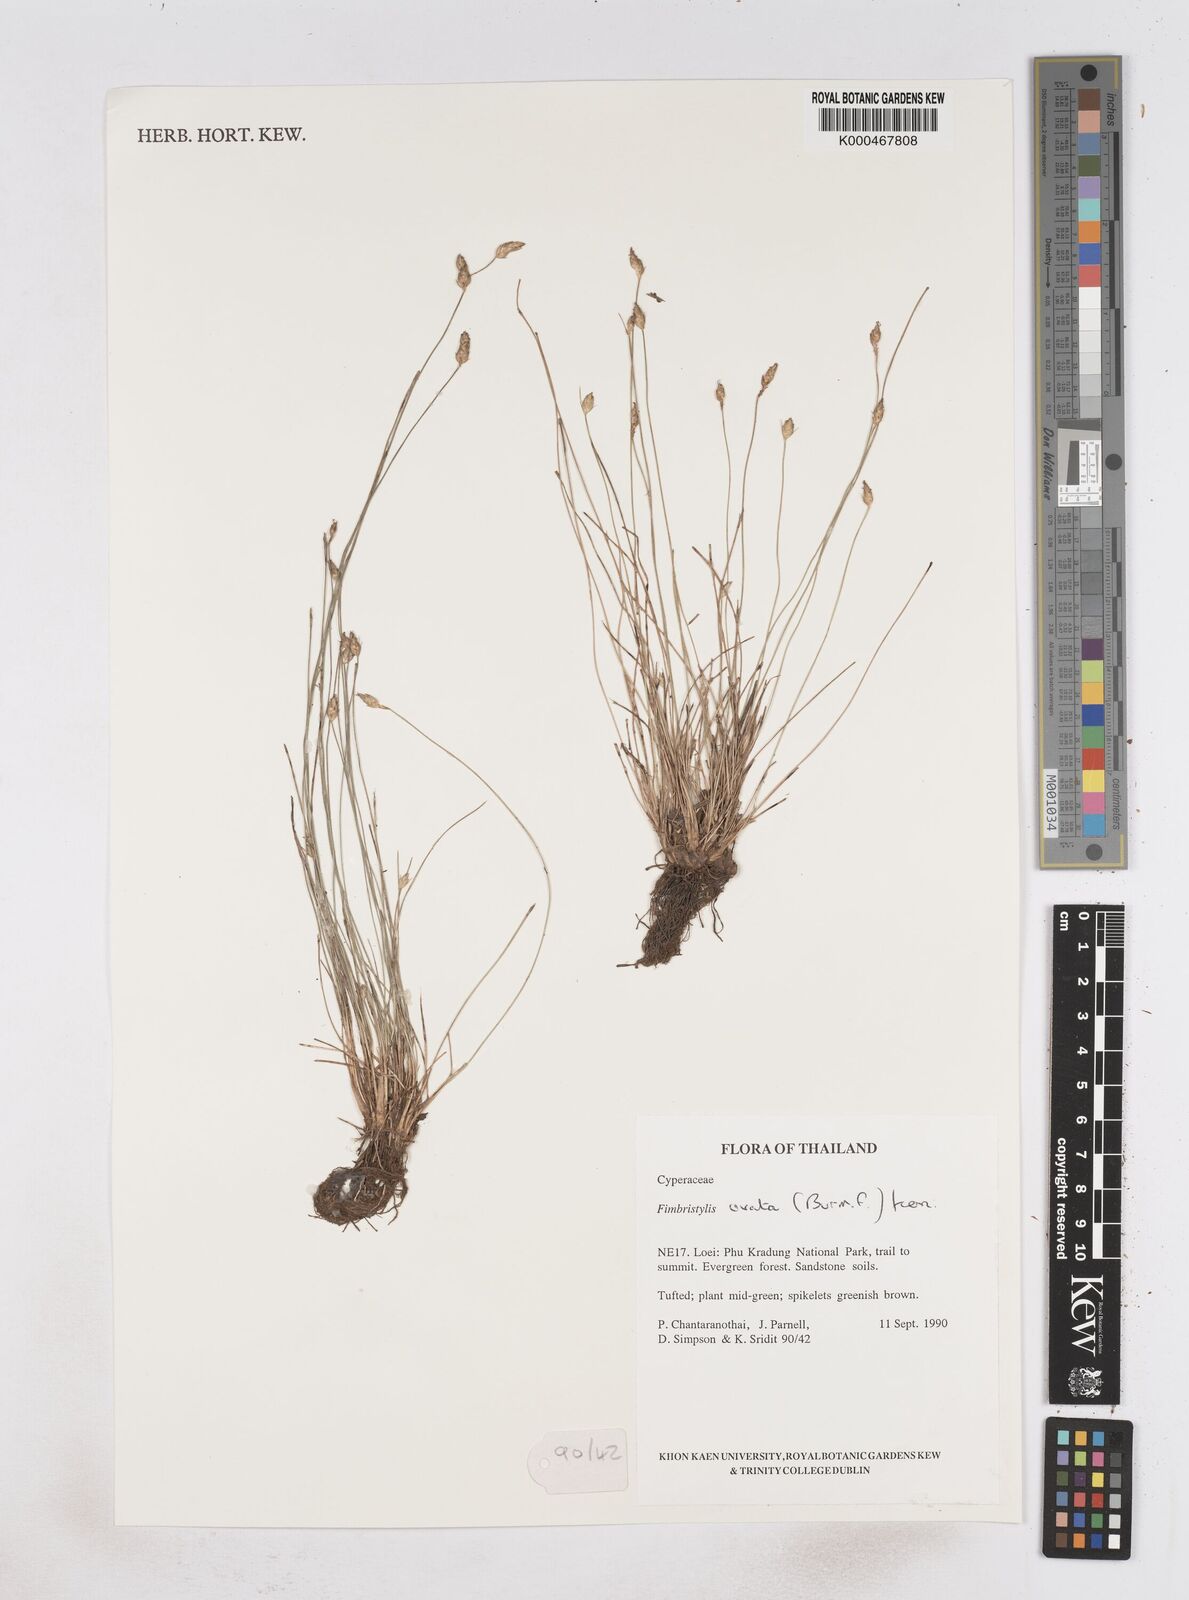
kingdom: Plantae
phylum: Tracheophyta
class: Liliopsida
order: Poales
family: Cyperaceae
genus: Abildgaardia
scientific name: Abildgaardia ovata
